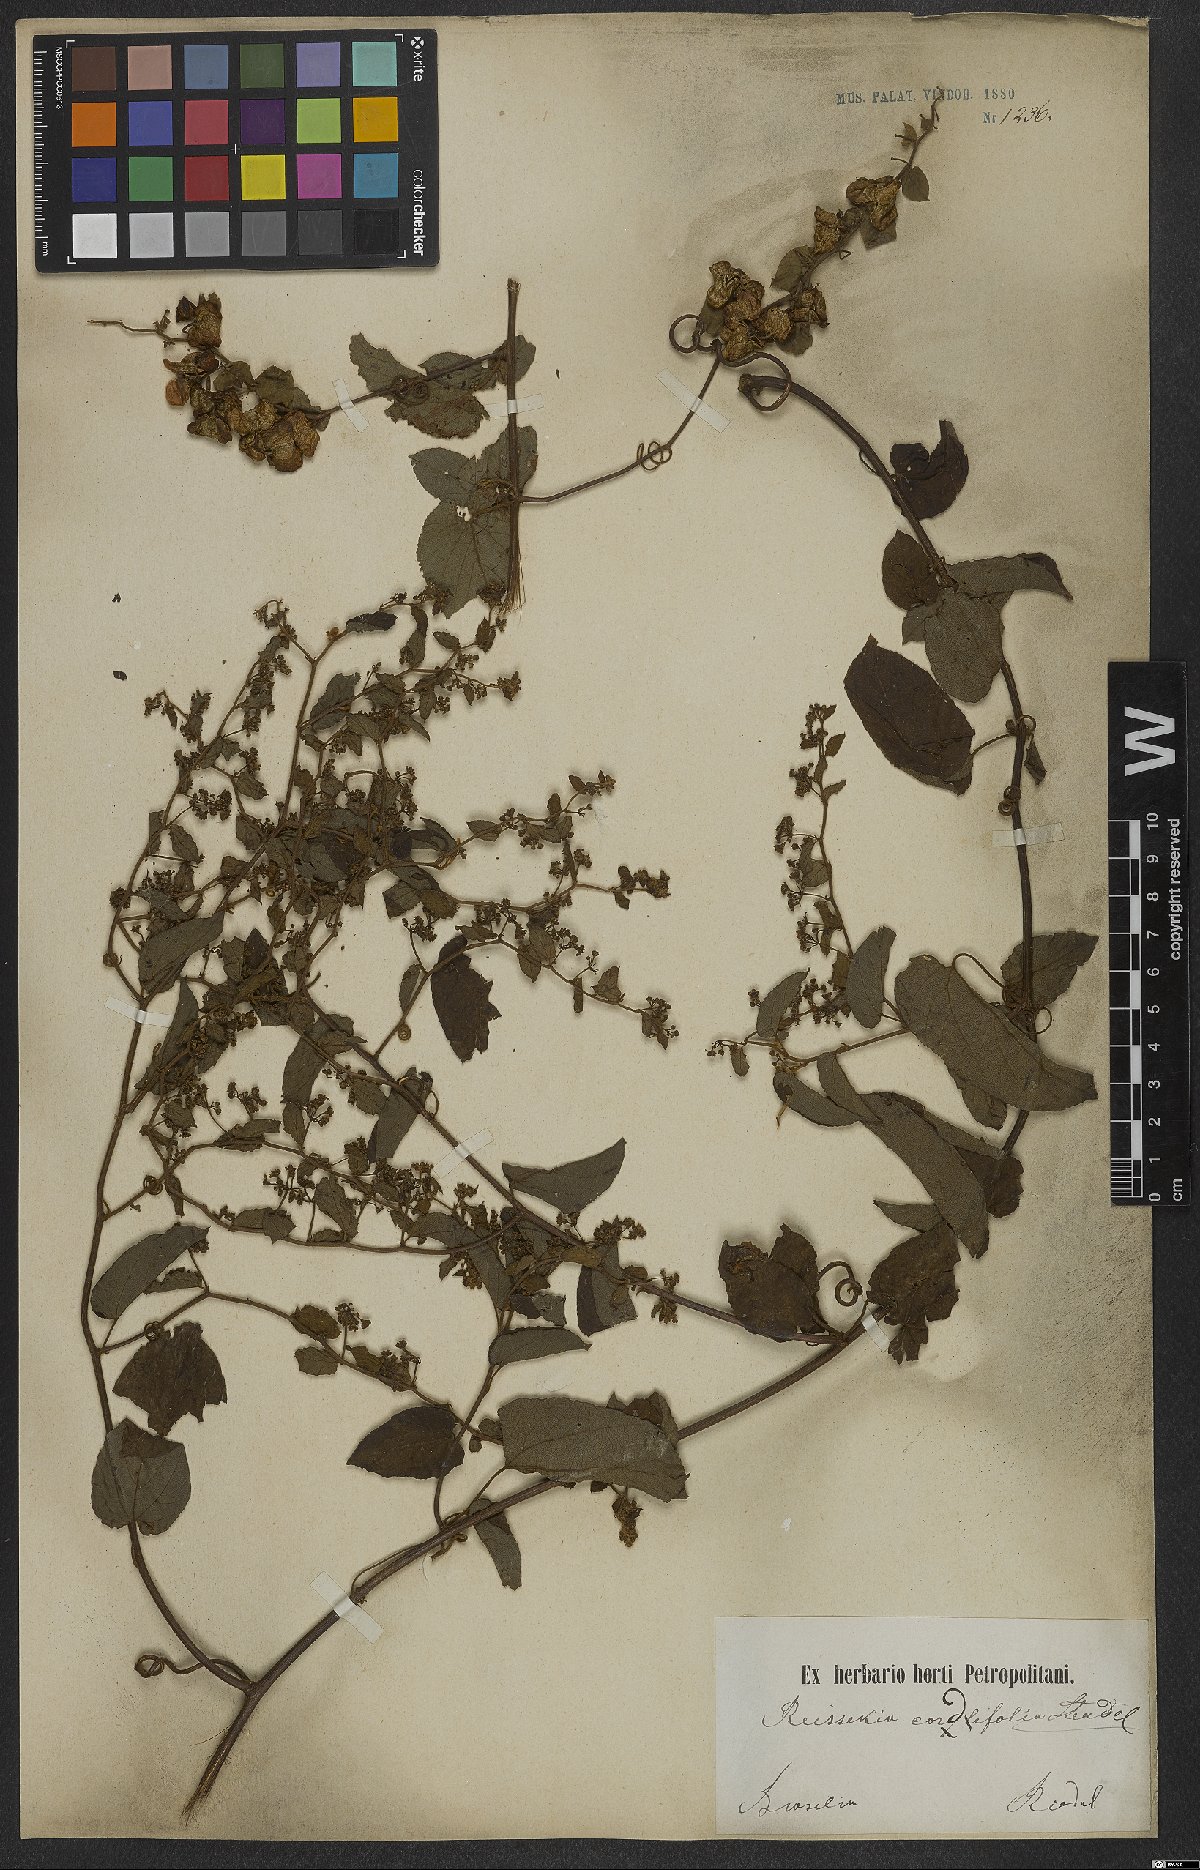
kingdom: Plantae
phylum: Tracheophyta
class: Magnoliopsida
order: Rosales
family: Rhamnaceae
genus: Reissekia
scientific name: Reissekia smilacina
